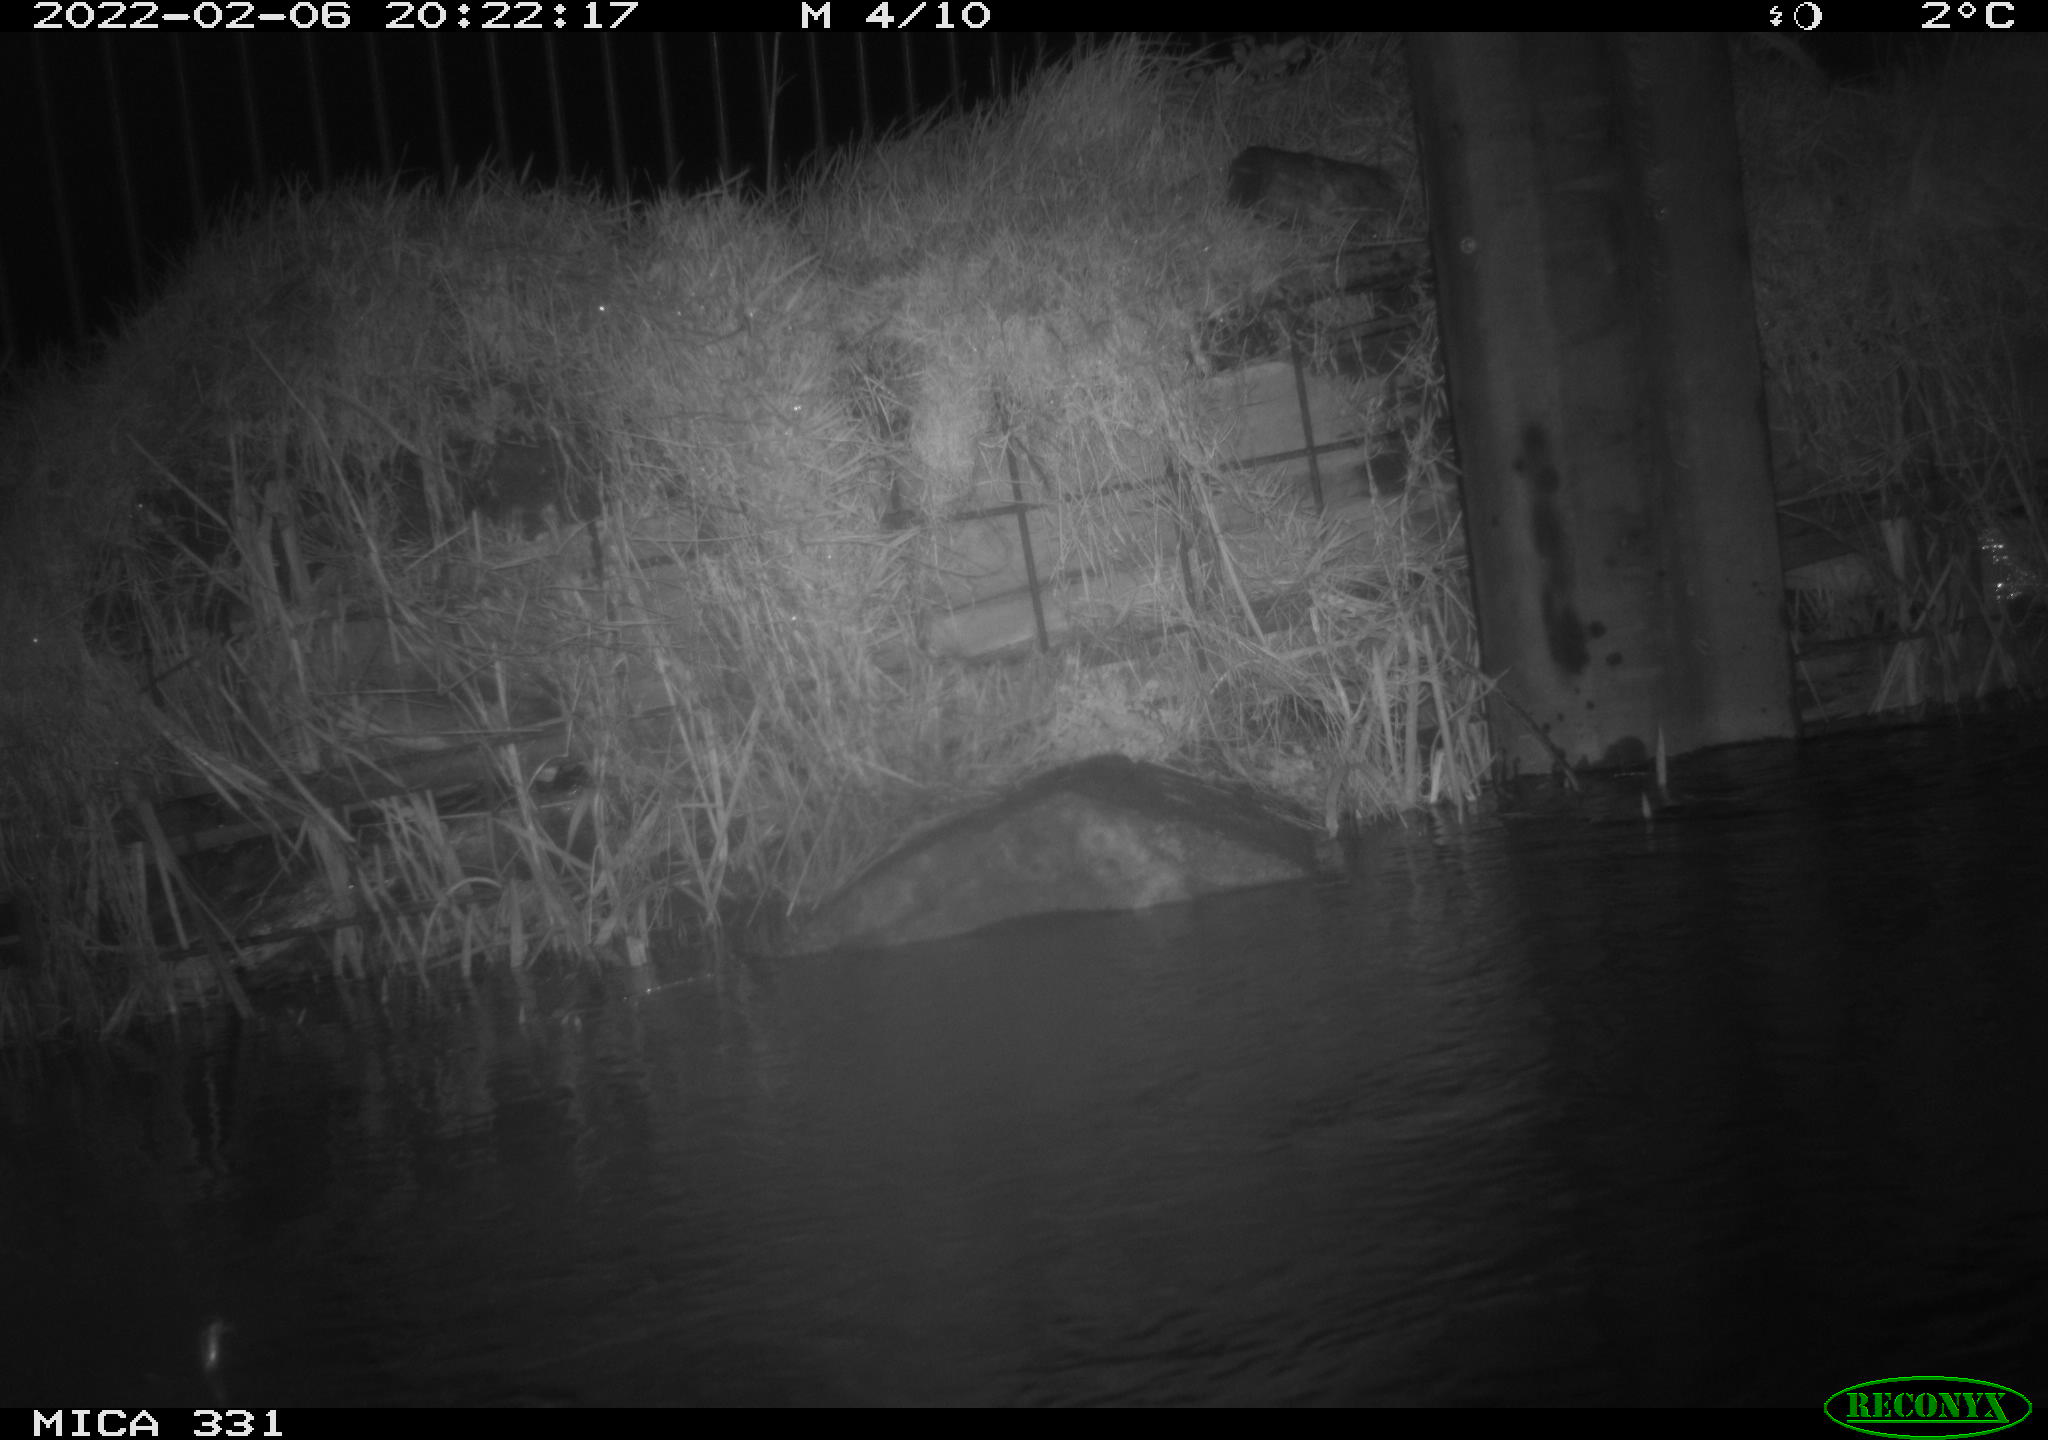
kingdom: Animalia
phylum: Chordata
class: Mammalia
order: Rodentia
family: Muridae
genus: Rattus
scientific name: Rattus norvegicus
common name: Brown rat
